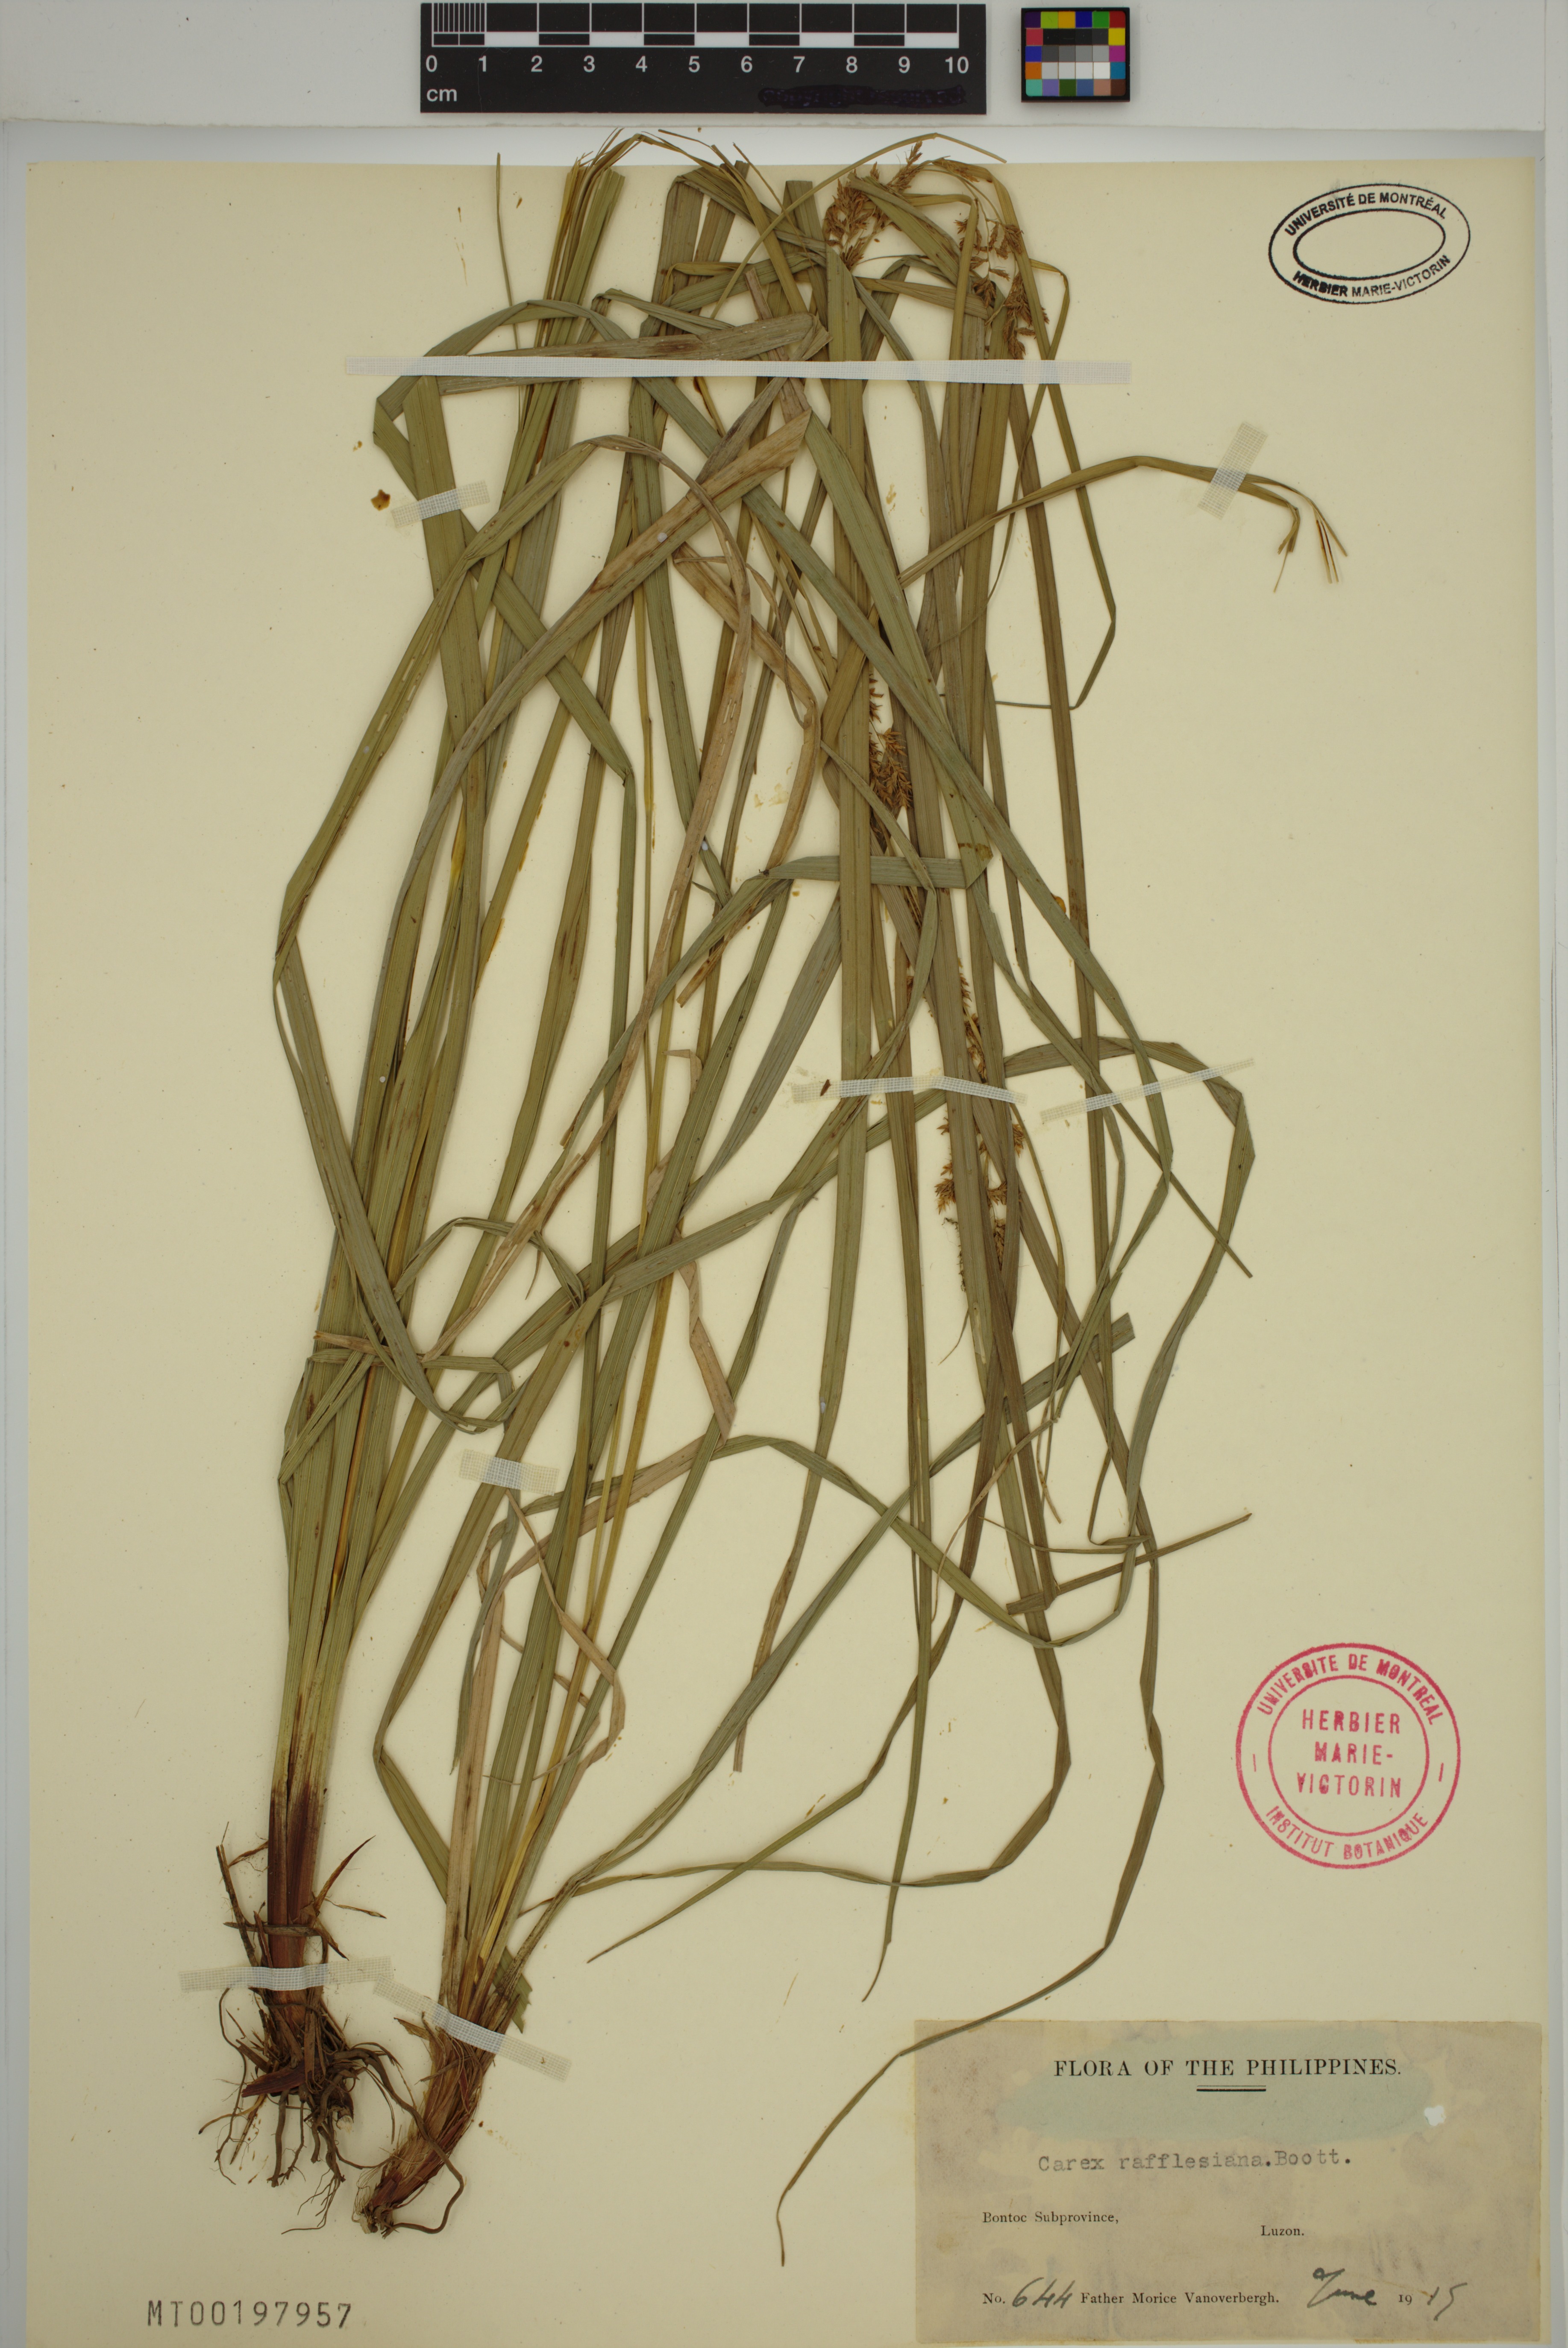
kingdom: Plantae
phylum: Tracheophyta
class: Liliopsida
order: Poales
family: Cyperaceae
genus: Carex
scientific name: Carex rafflesiana
